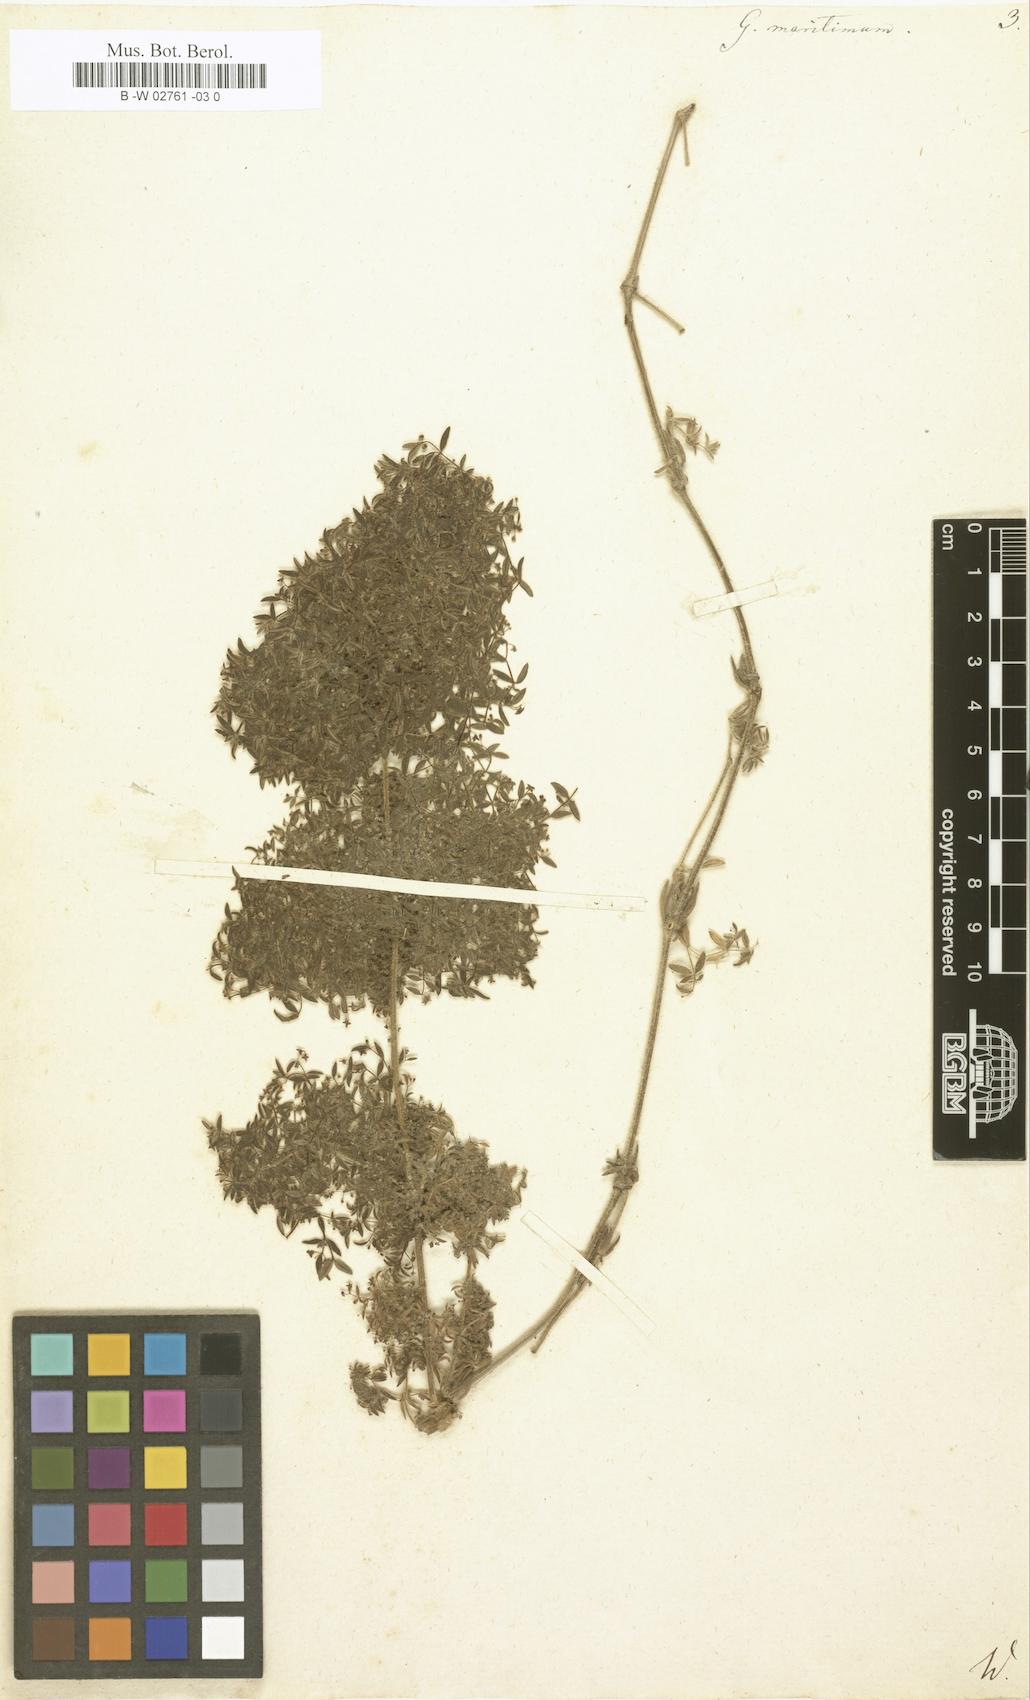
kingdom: Plantae
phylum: Tracheophyta
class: Magnoliopsida
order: Gentianales
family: Rubiaceae
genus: Galium
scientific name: Galium maritimum
